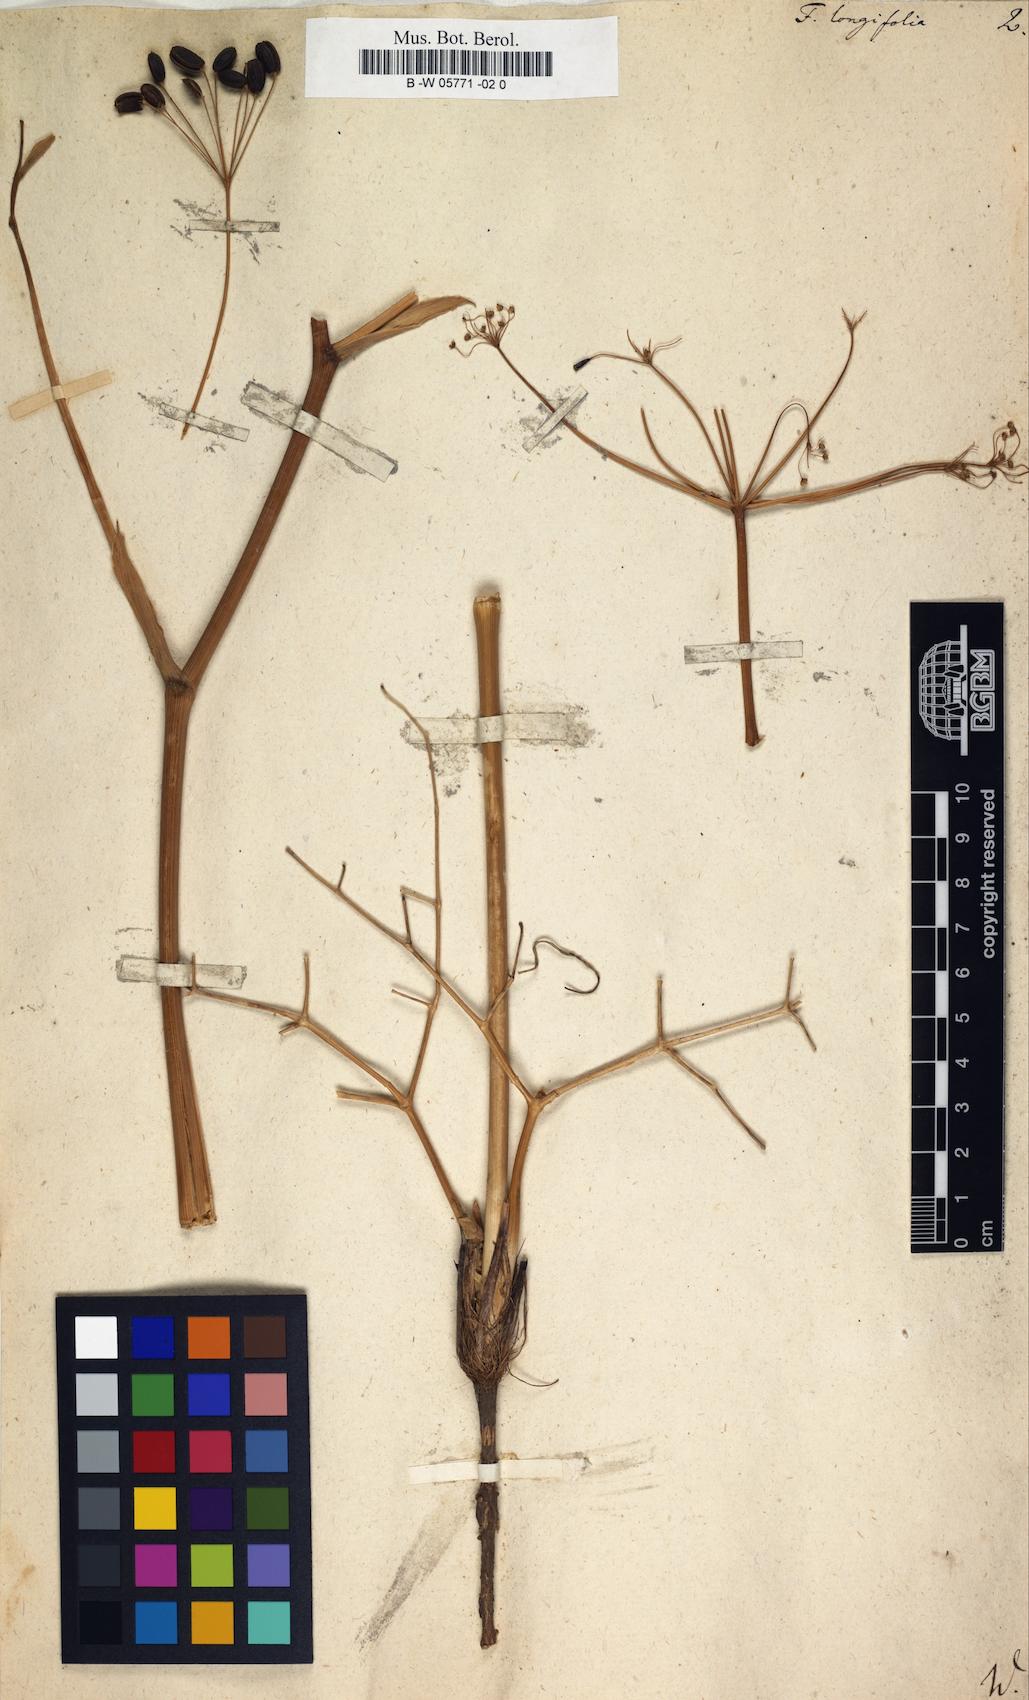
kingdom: Plantae
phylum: Tracheophyta
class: Magnoliopsida
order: Apiales
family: Apiaceae
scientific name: Apiaceae
